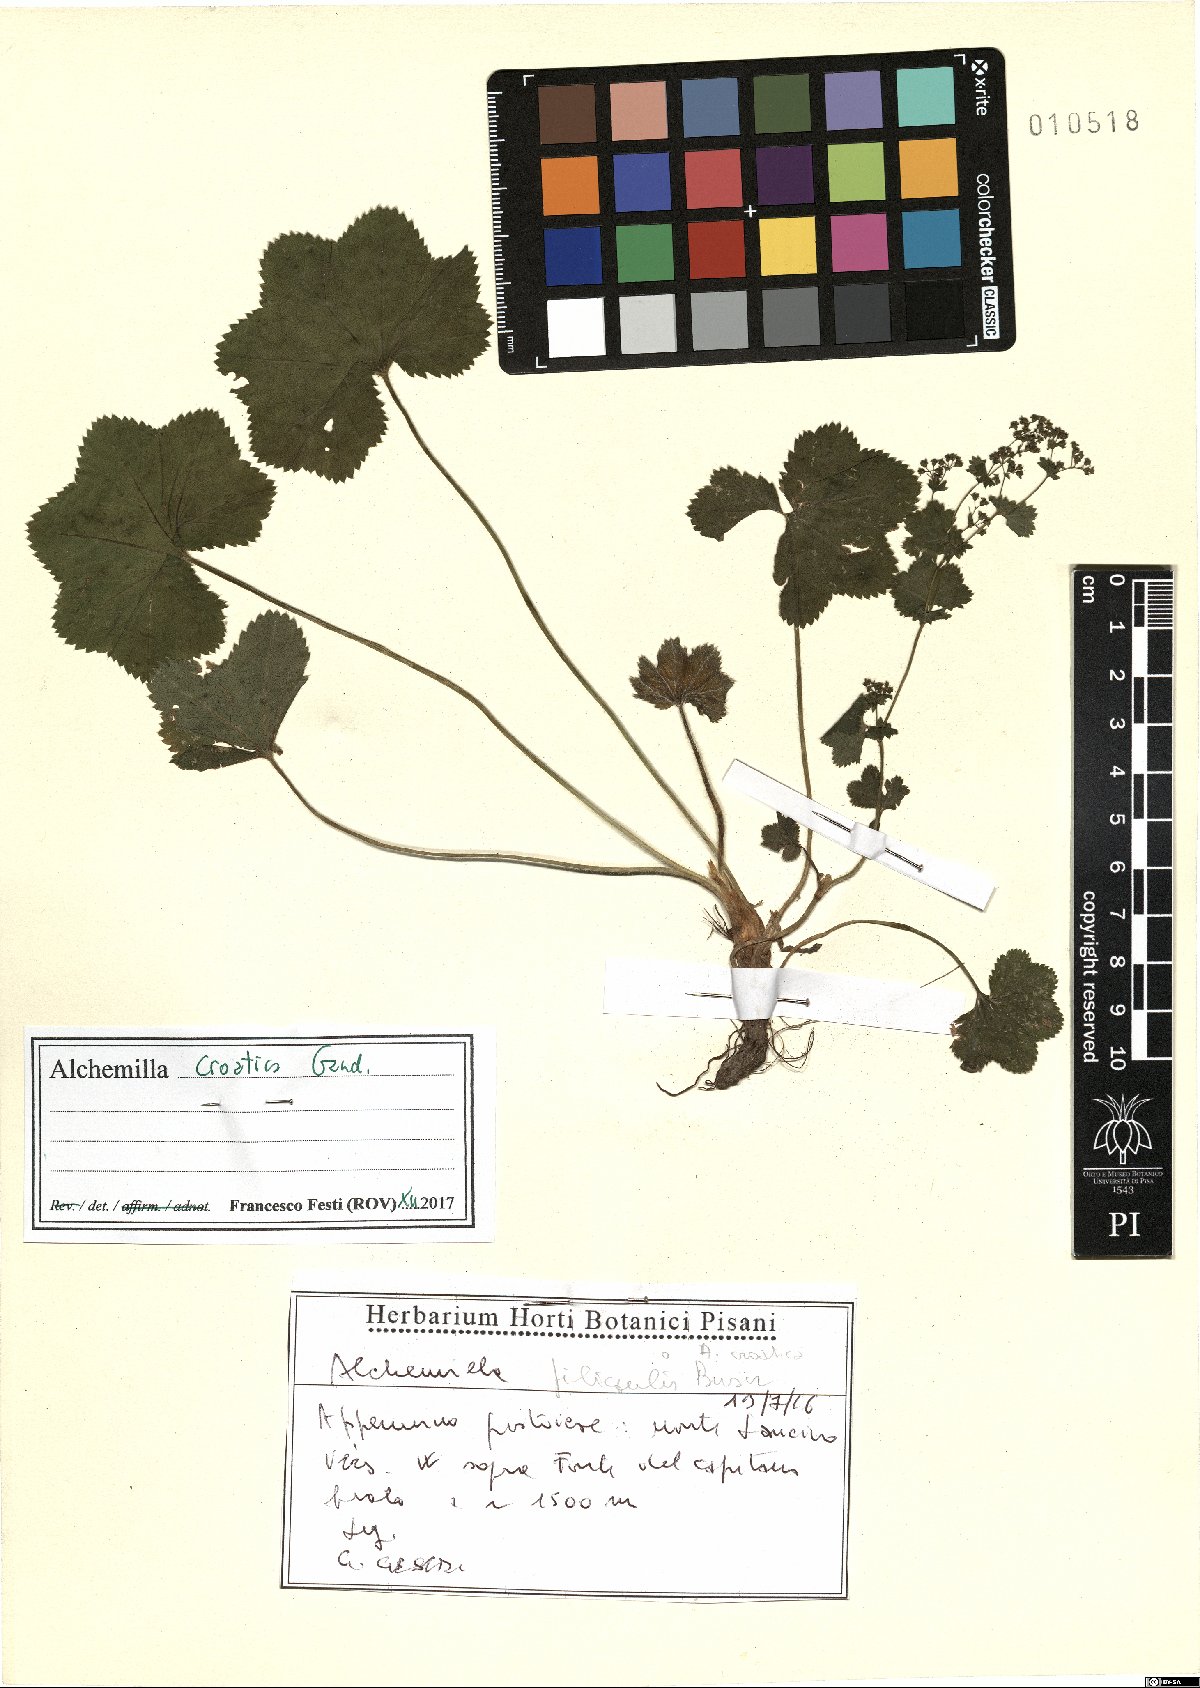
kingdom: Plantae
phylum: Tracheophyta
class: Magnoliopsida
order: Rosales
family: Rosaceae
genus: Alchemilla
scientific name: Alchemilla croatica
